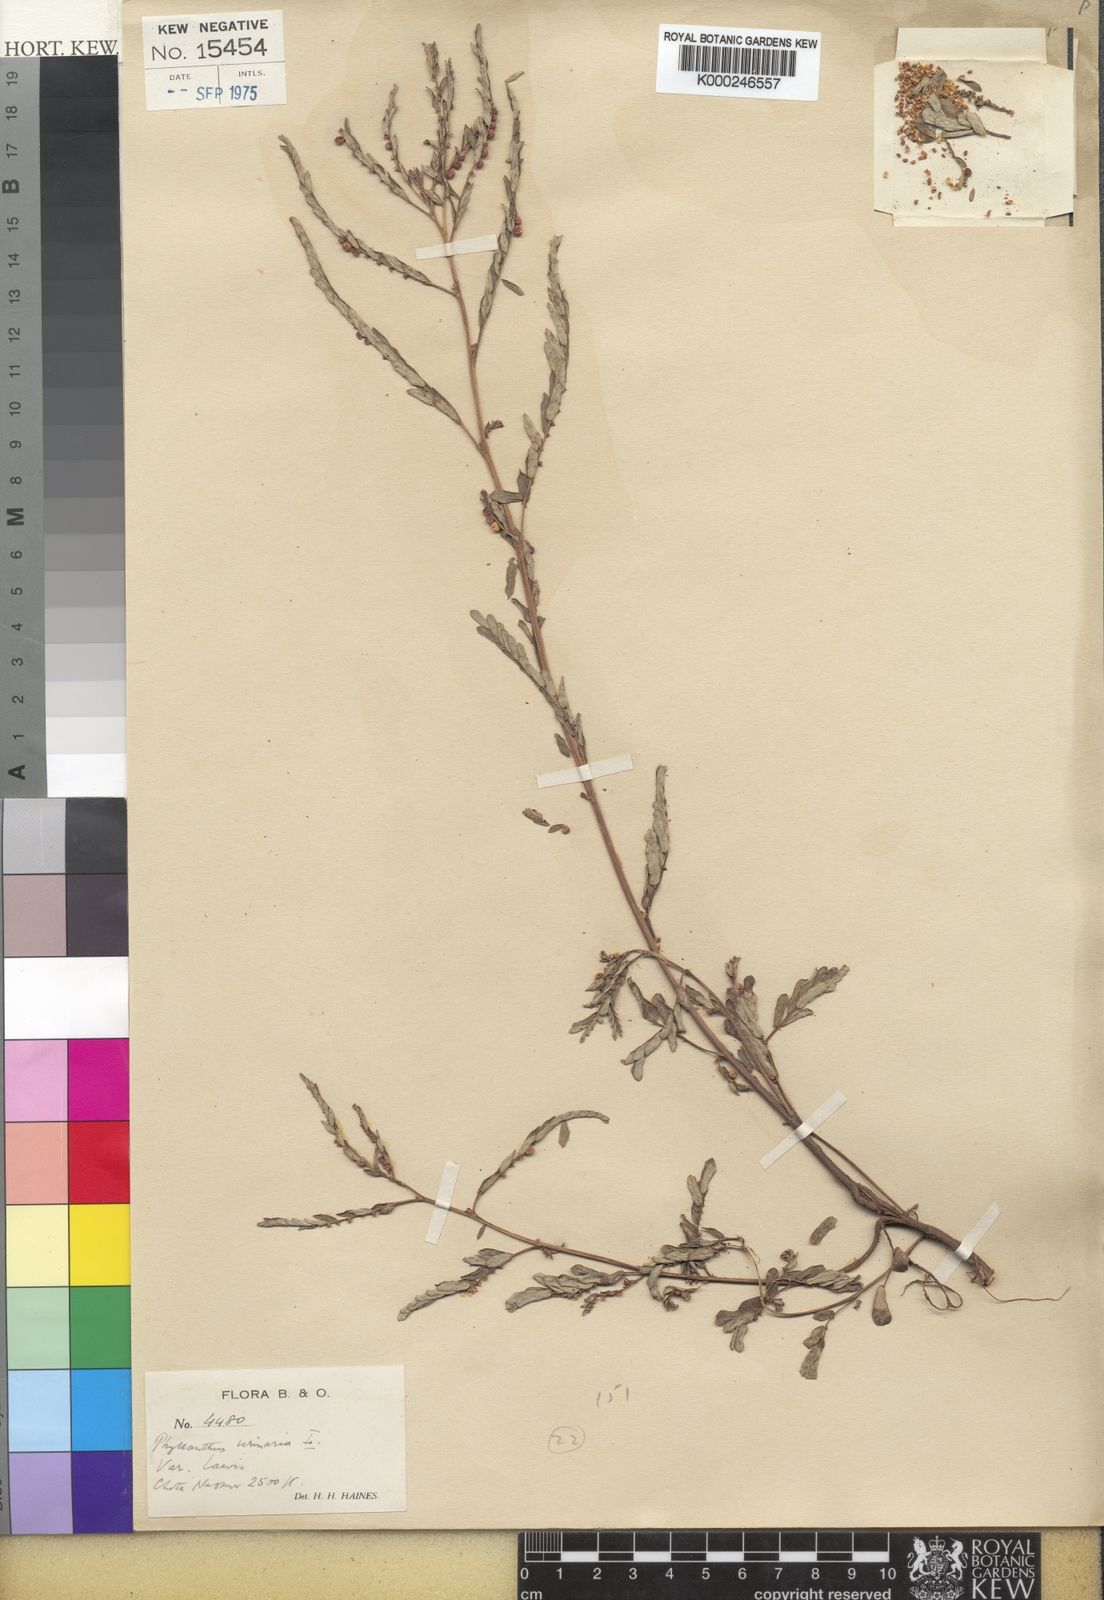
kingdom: Plantae
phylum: Tracheophyta
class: Magnoliopsida
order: Malpighiales
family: Phyllanthaceae
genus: Phyllanthus
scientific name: Phyllanthus urinaria
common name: Chamber bitter
